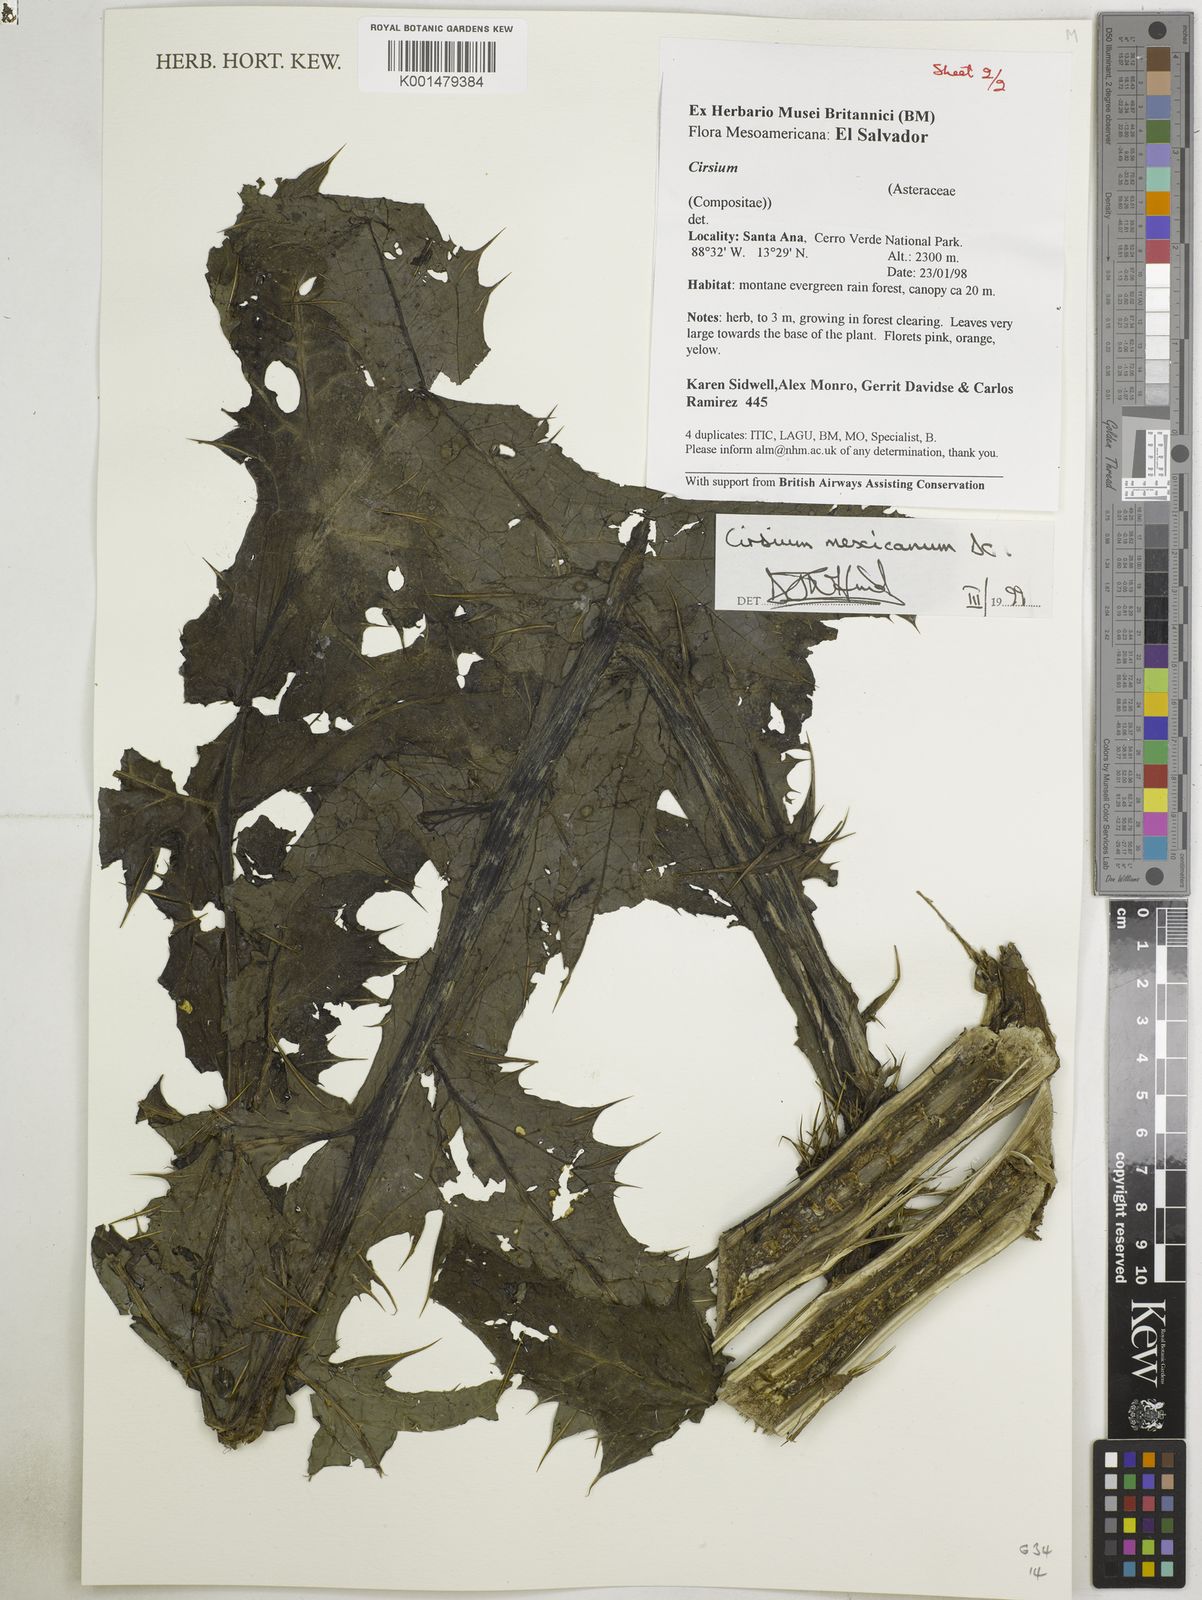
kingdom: Plantae
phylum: Tracheophyta
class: Magnoliopsida
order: Asterales
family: Asteraceae
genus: Cirsium
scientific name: Cirsium mexicanum
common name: Mexican thistle
